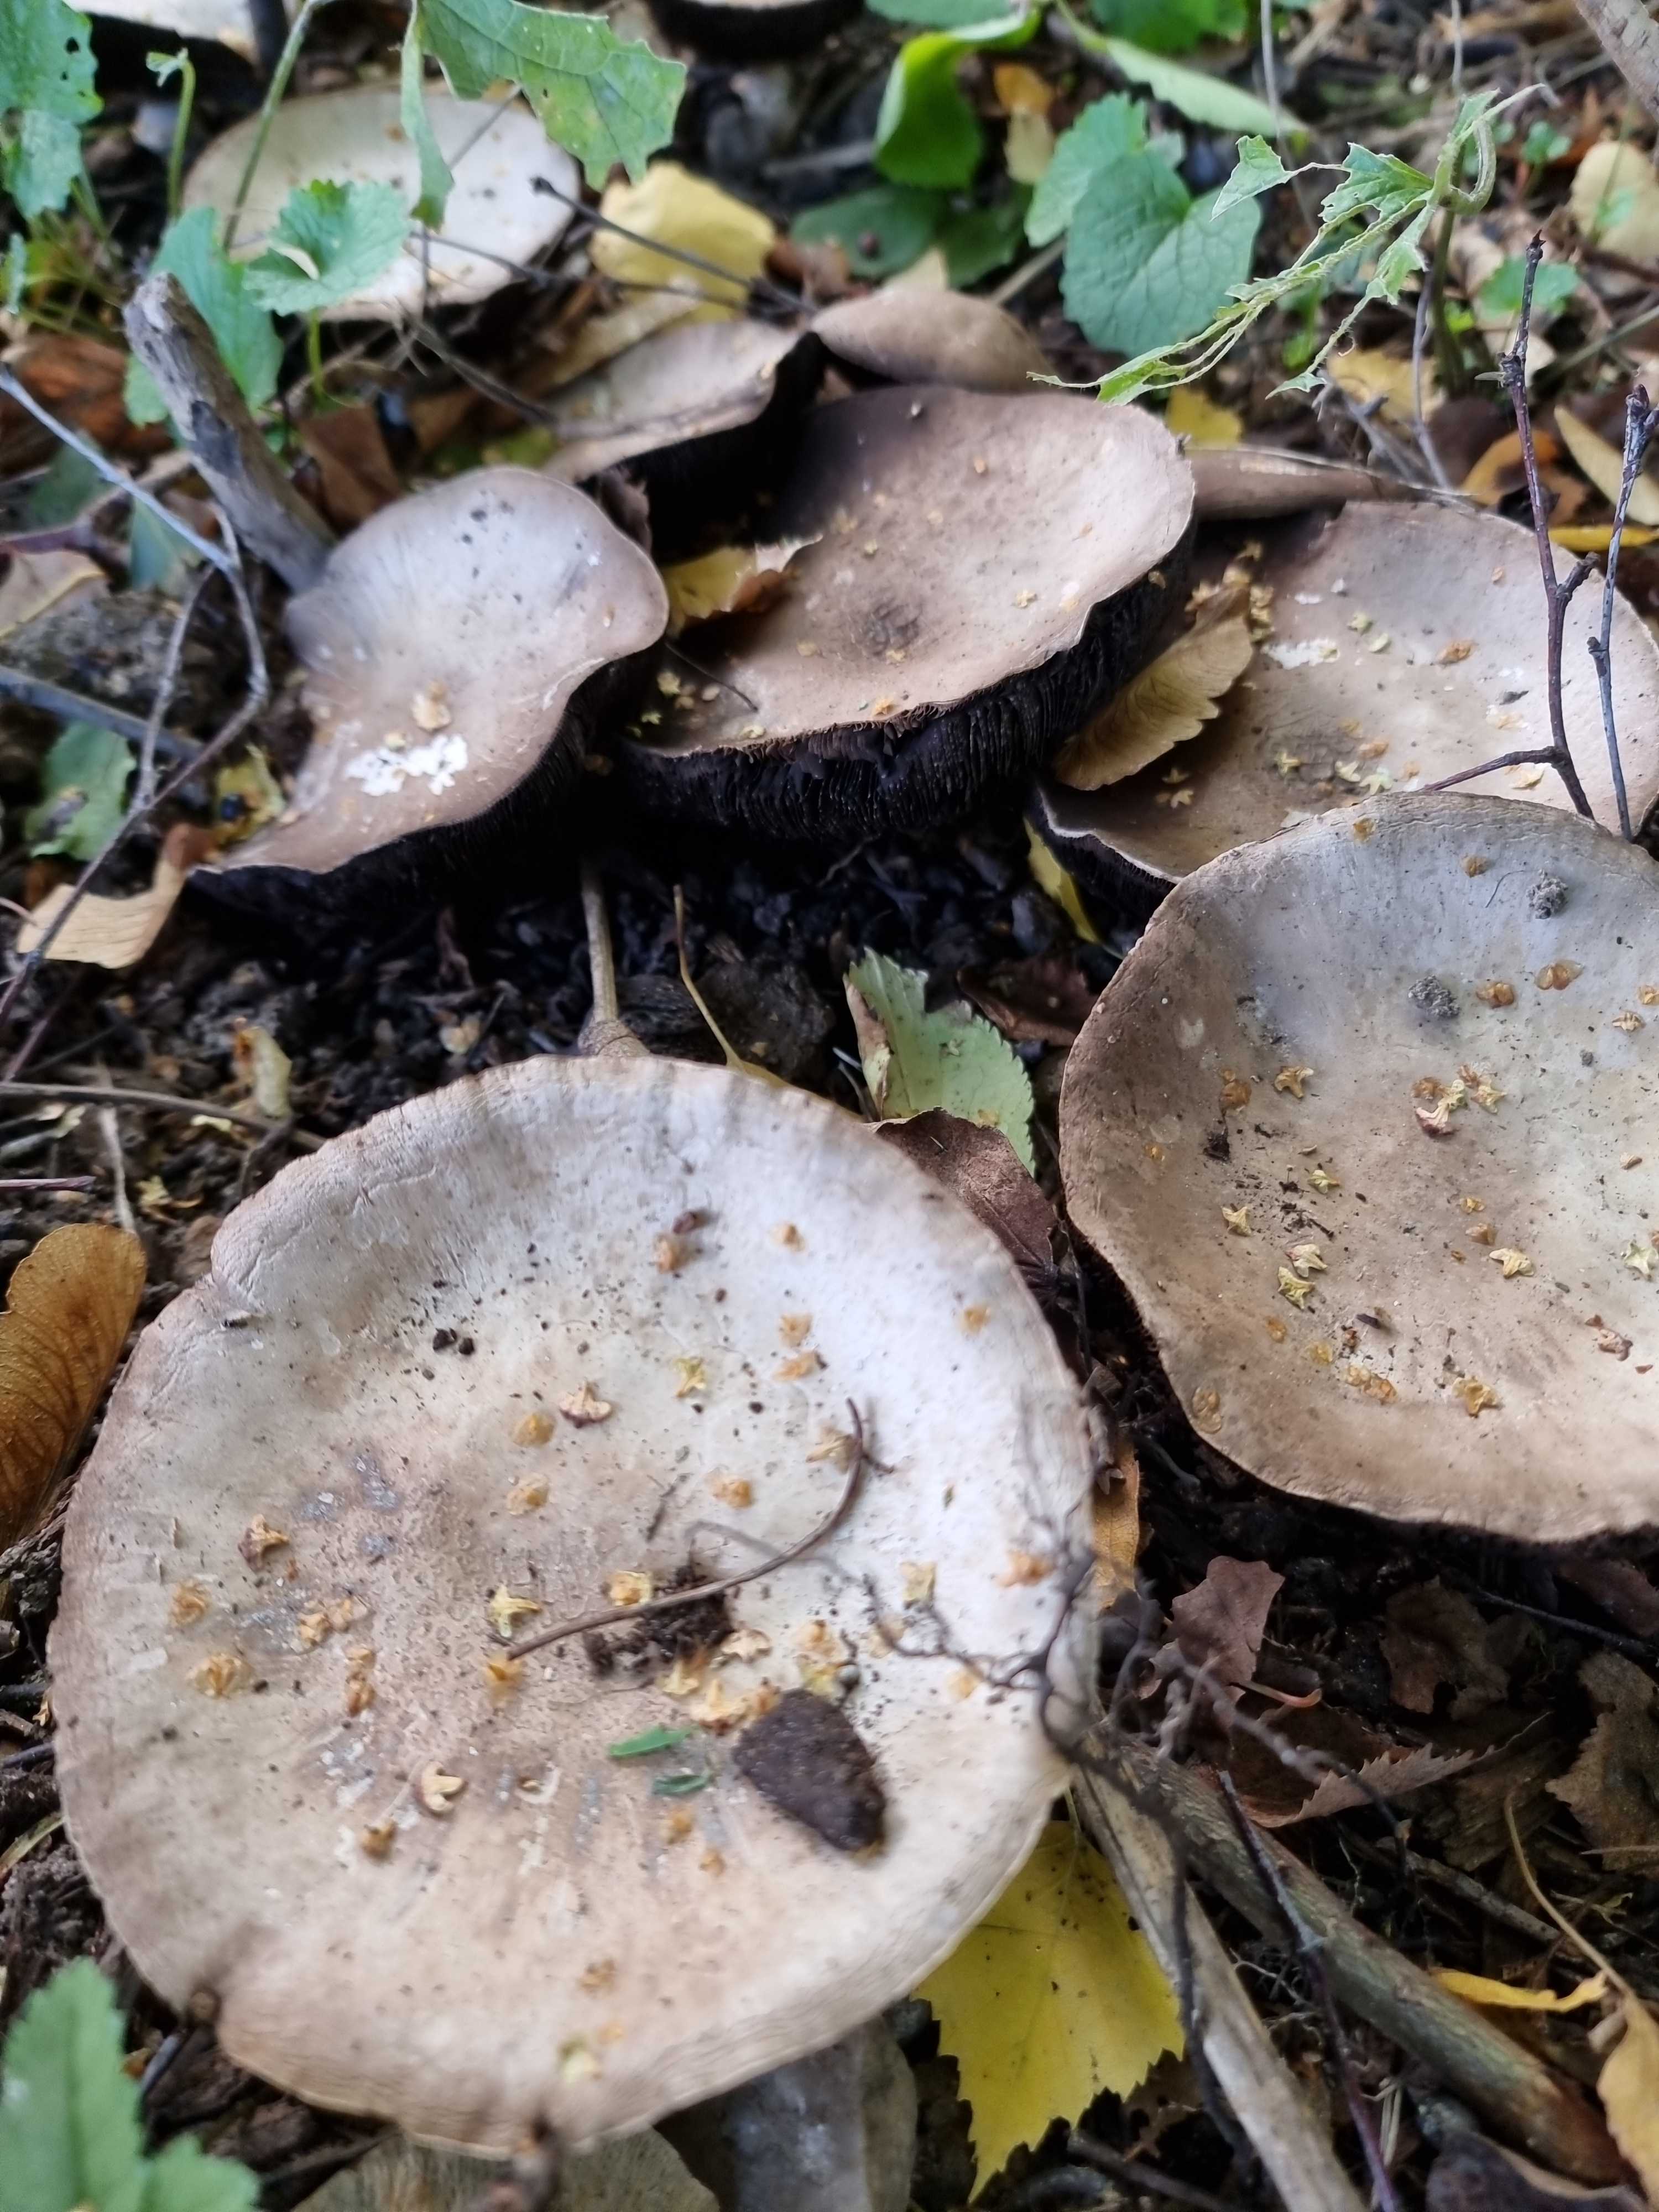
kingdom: Fungi
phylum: Basidiomycota
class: Agaricomycetes
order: Agaricales
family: Agaricaceae
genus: Agaricus
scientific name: Agaricus arvensis
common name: ager-champignon
